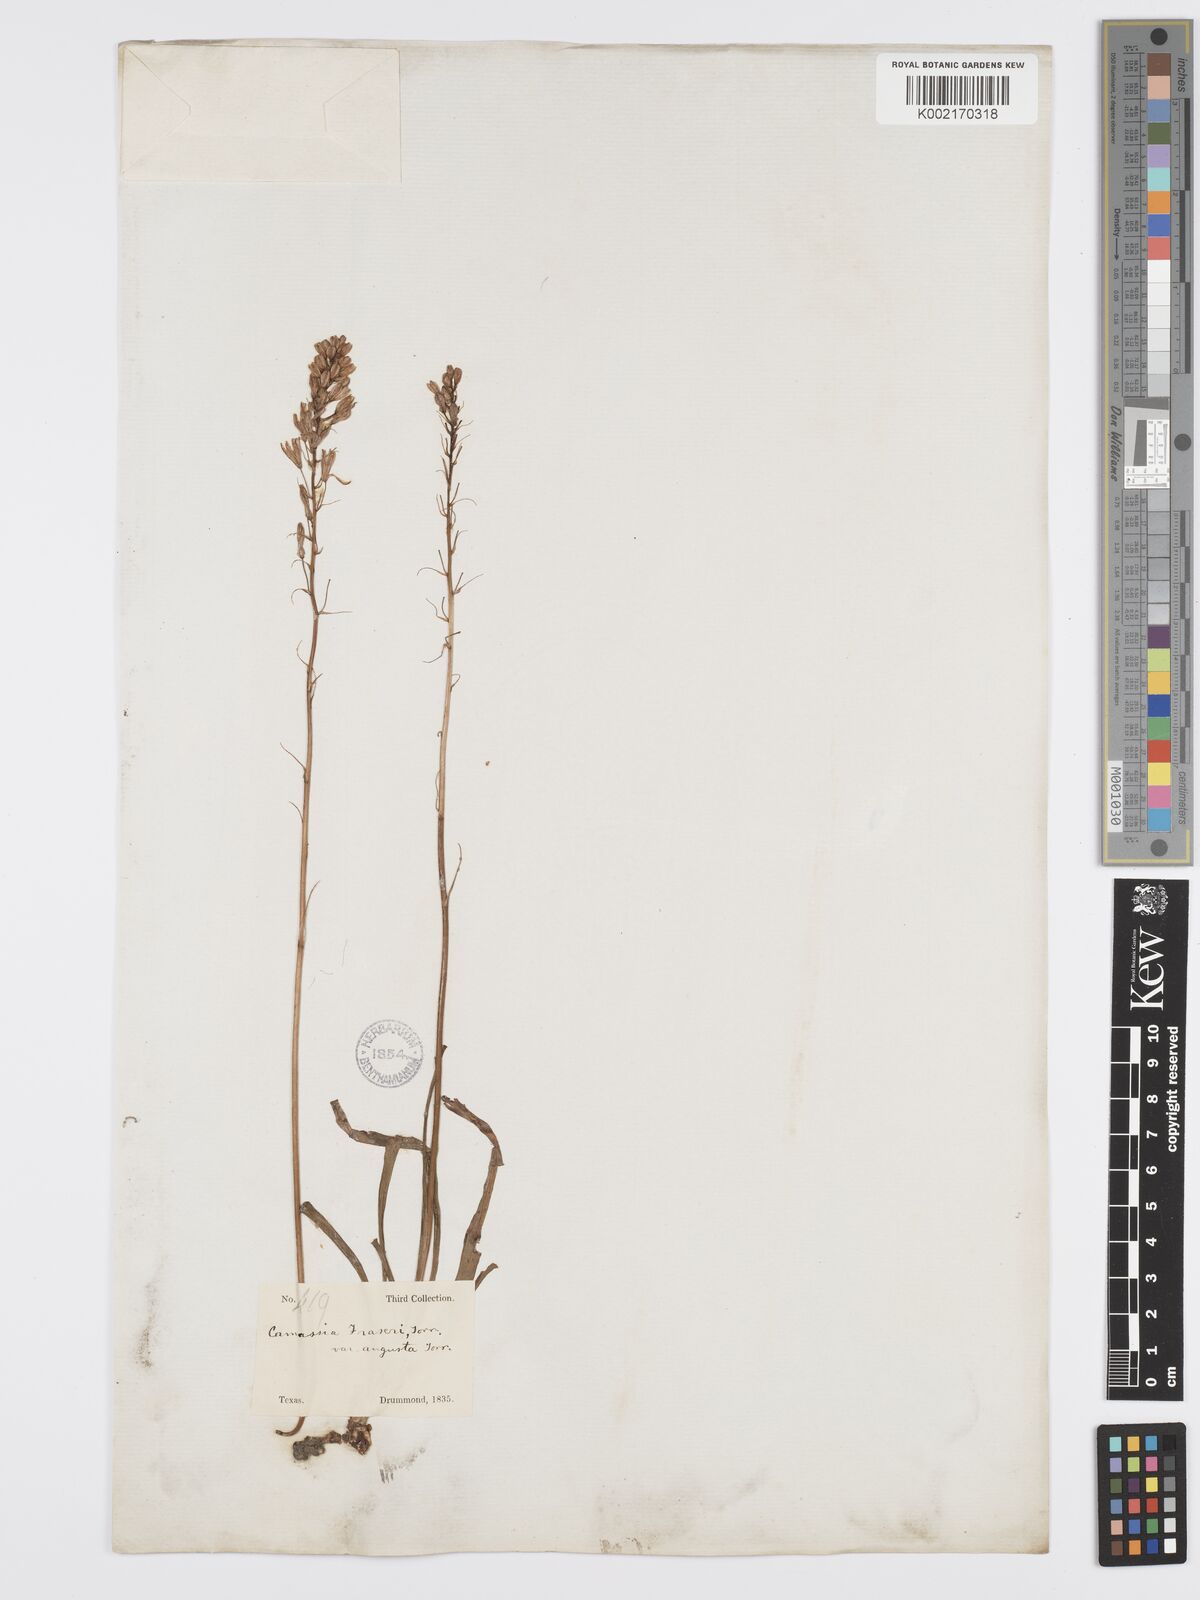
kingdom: Plantae
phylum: Tracheophyta
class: Liliopsida
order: Asparagales
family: Asparagaceae
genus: Camassia
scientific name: Camassia scilloides
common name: Wild hyacinth
